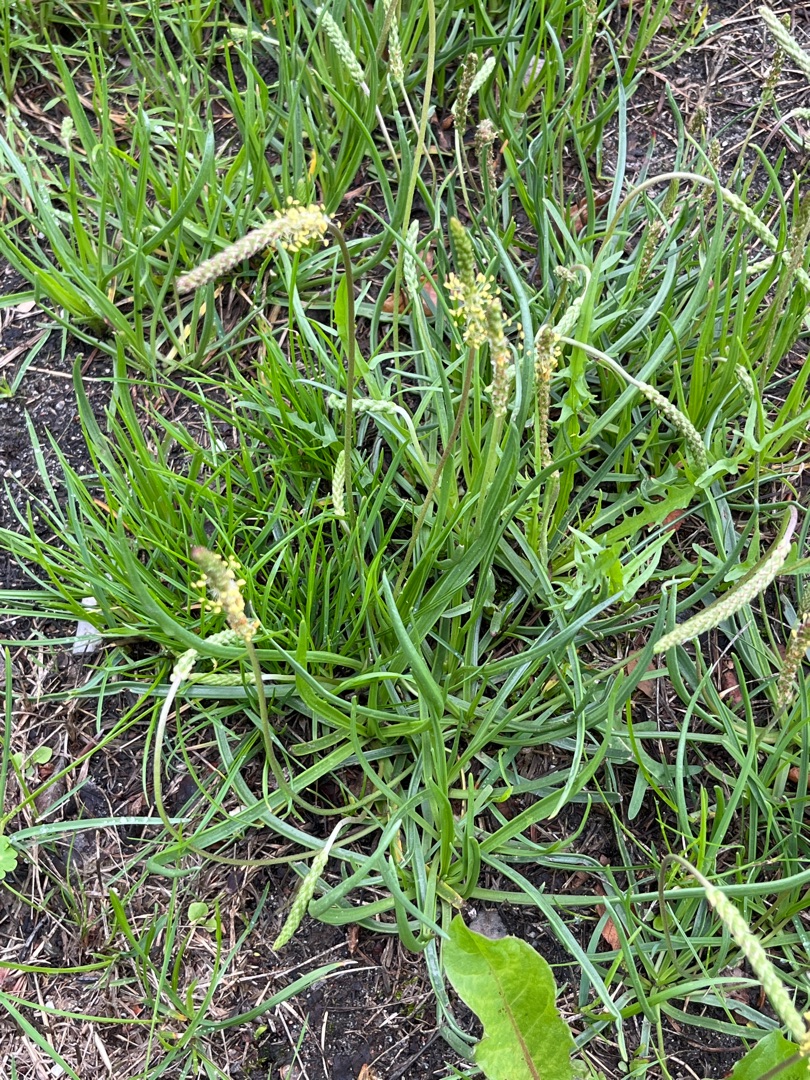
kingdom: Plantae
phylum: Tracheophyta
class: Magnoliopsida
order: Lamiales
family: Plantaginaceae
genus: Plantago
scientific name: Plantago maritima
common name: Strand-vejbred
